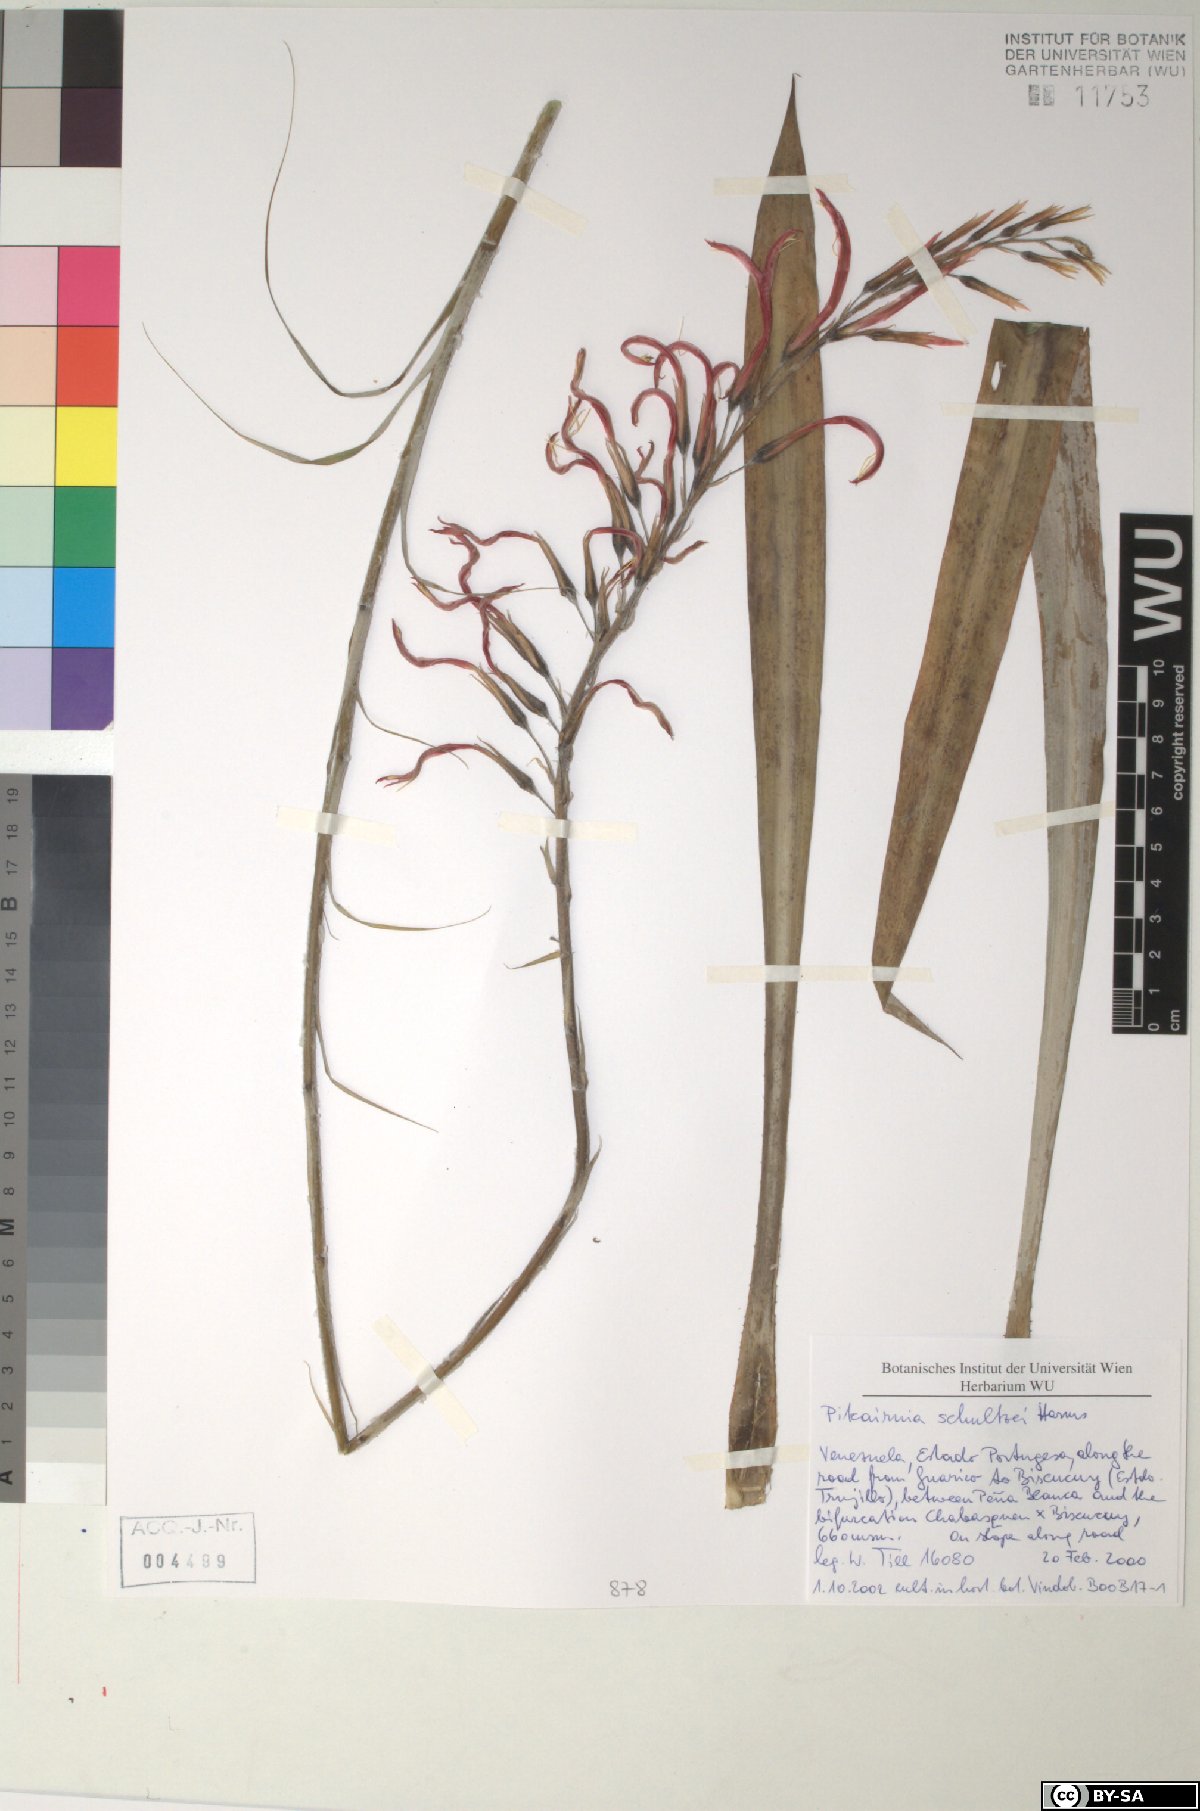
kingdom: Plantae
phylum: Tracheophyta
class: Liliopsida
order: Poales
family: Bromeliaceae
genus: Pitcairnia
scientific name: Pitcairnia schultzei
